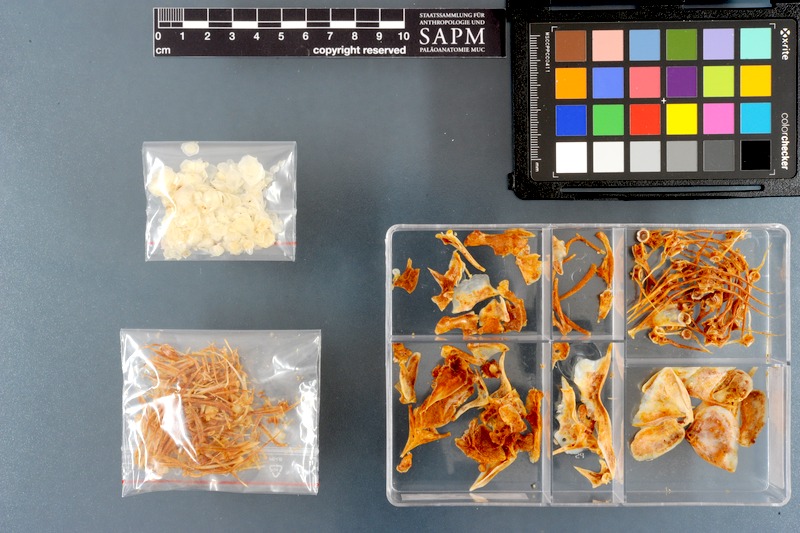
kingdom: Animalia
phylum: Chordata
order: Perciformes
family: Cichlidae
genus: Astronotus
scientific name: Astronotus ocellatus
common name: Oscar
